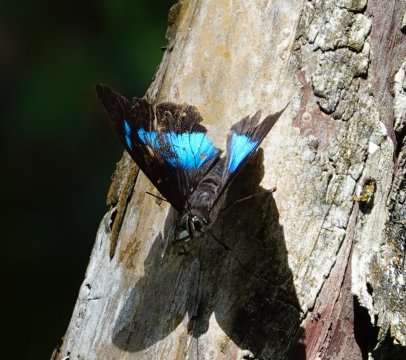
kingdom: Animalia
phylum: Arthropoda
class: Insecta
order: Lepidoptera
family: Nymphalidae
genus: Prepona
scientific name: Prepona meander
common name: White-spotted Prepona
